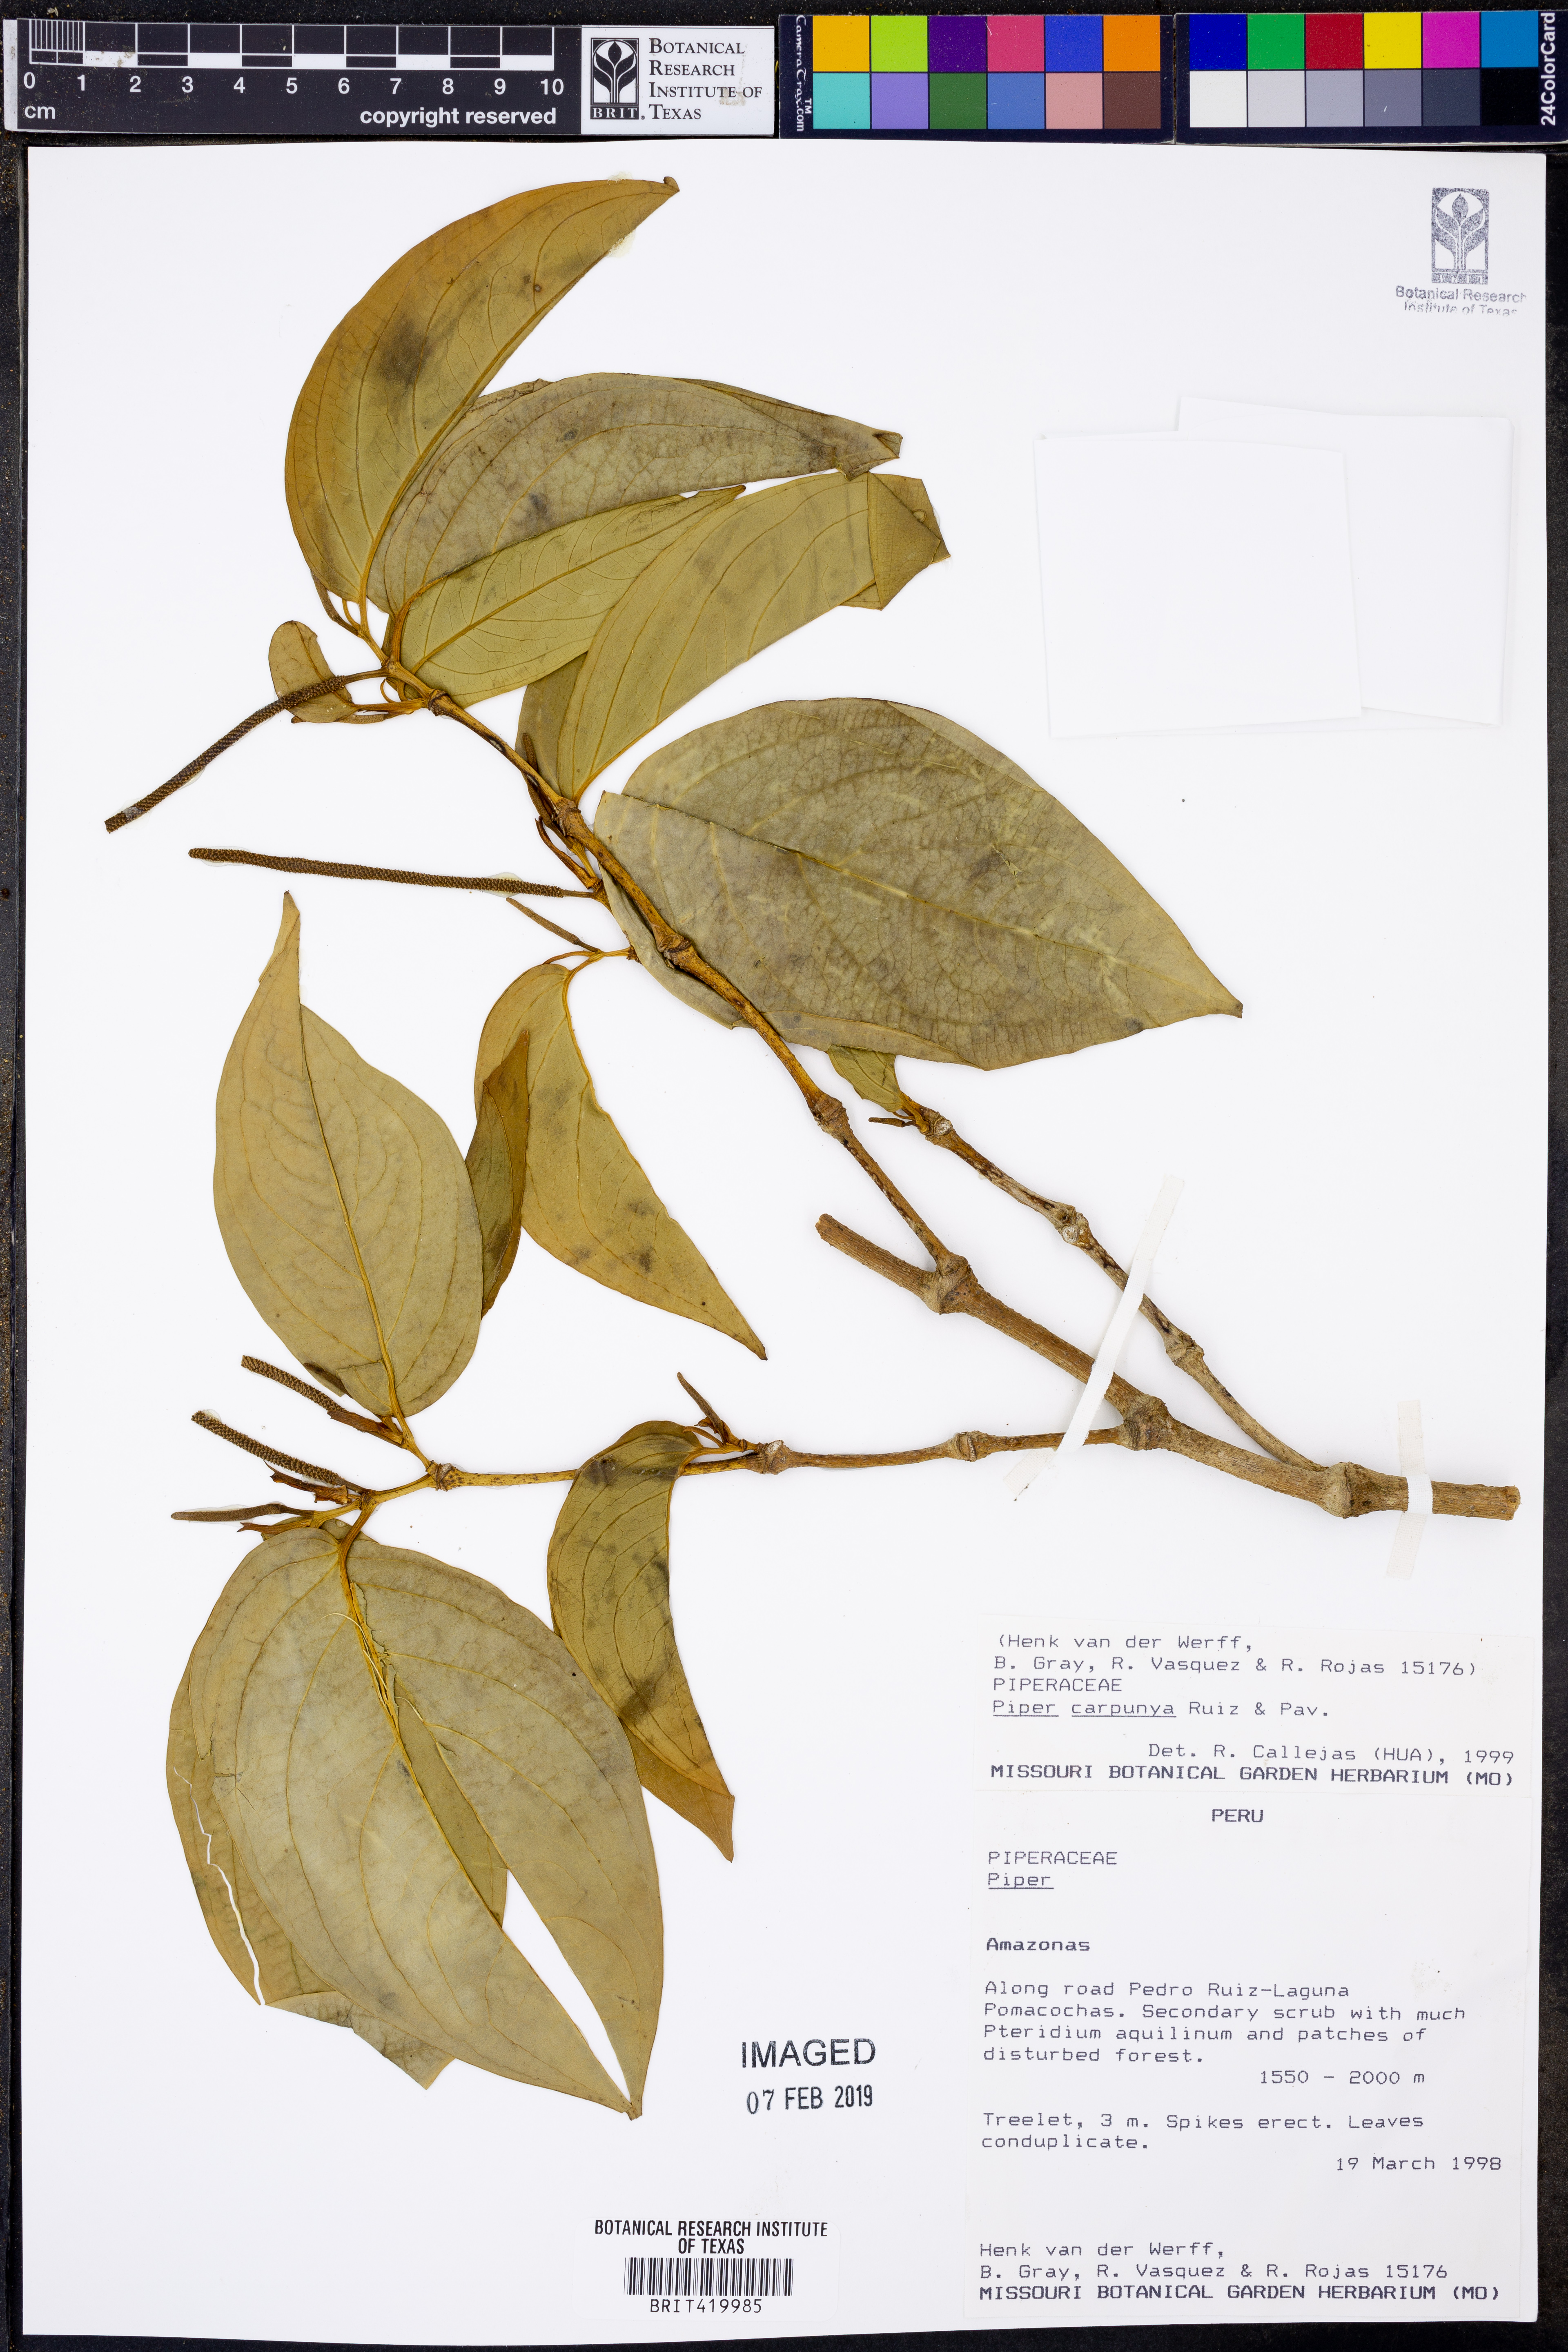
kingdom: Plantae
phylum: Tracheophyta
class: Magnoliopsida
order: Piperales
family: Piperaceae
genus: Piper
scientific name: Piper carpunya
